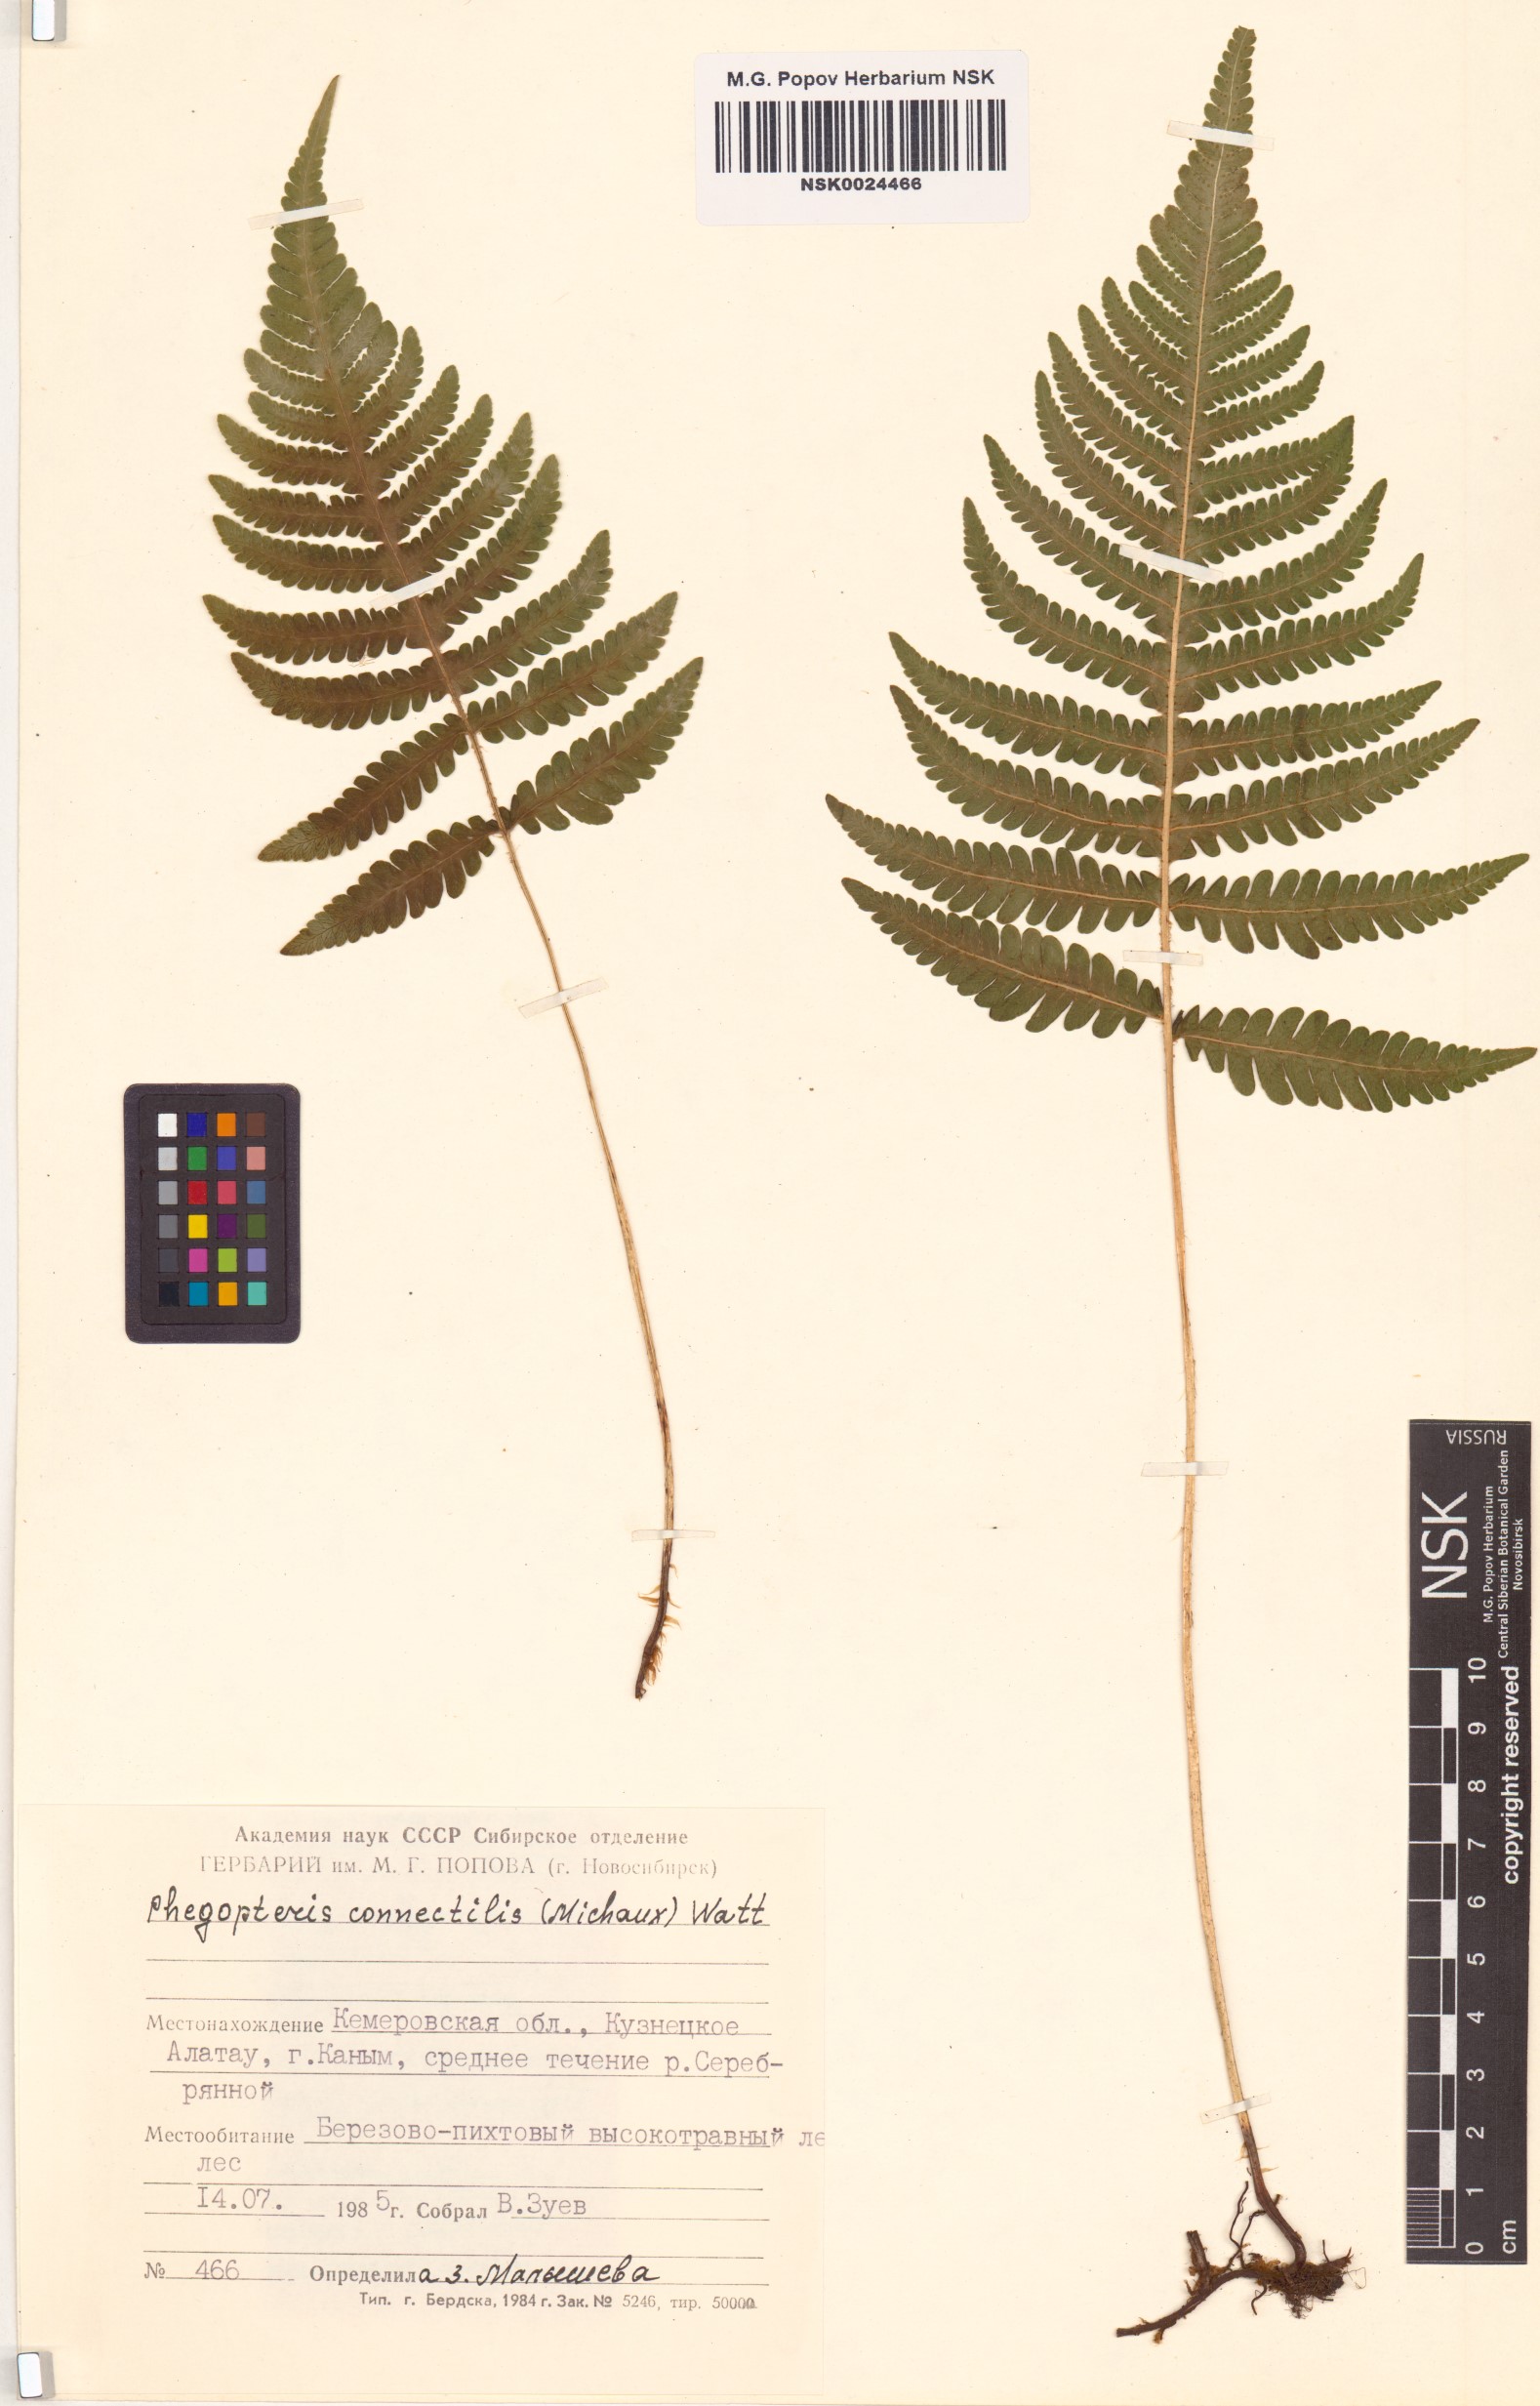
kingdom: Plantae
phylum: Tracheophyta
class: Polypodiopsida
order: Polypodiales
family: Thelypteridaceae
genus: Phegopteris
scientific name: Phegopteris connectilis
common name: Beech fern
